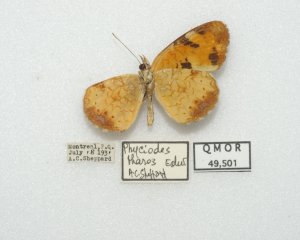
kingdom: Animalia
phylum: Arthropoda
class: Insecta
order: Lepidoptera
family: Nymphalidae
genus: Phyciodes
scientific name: Phyciodes tharos
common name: Northern Crescent
